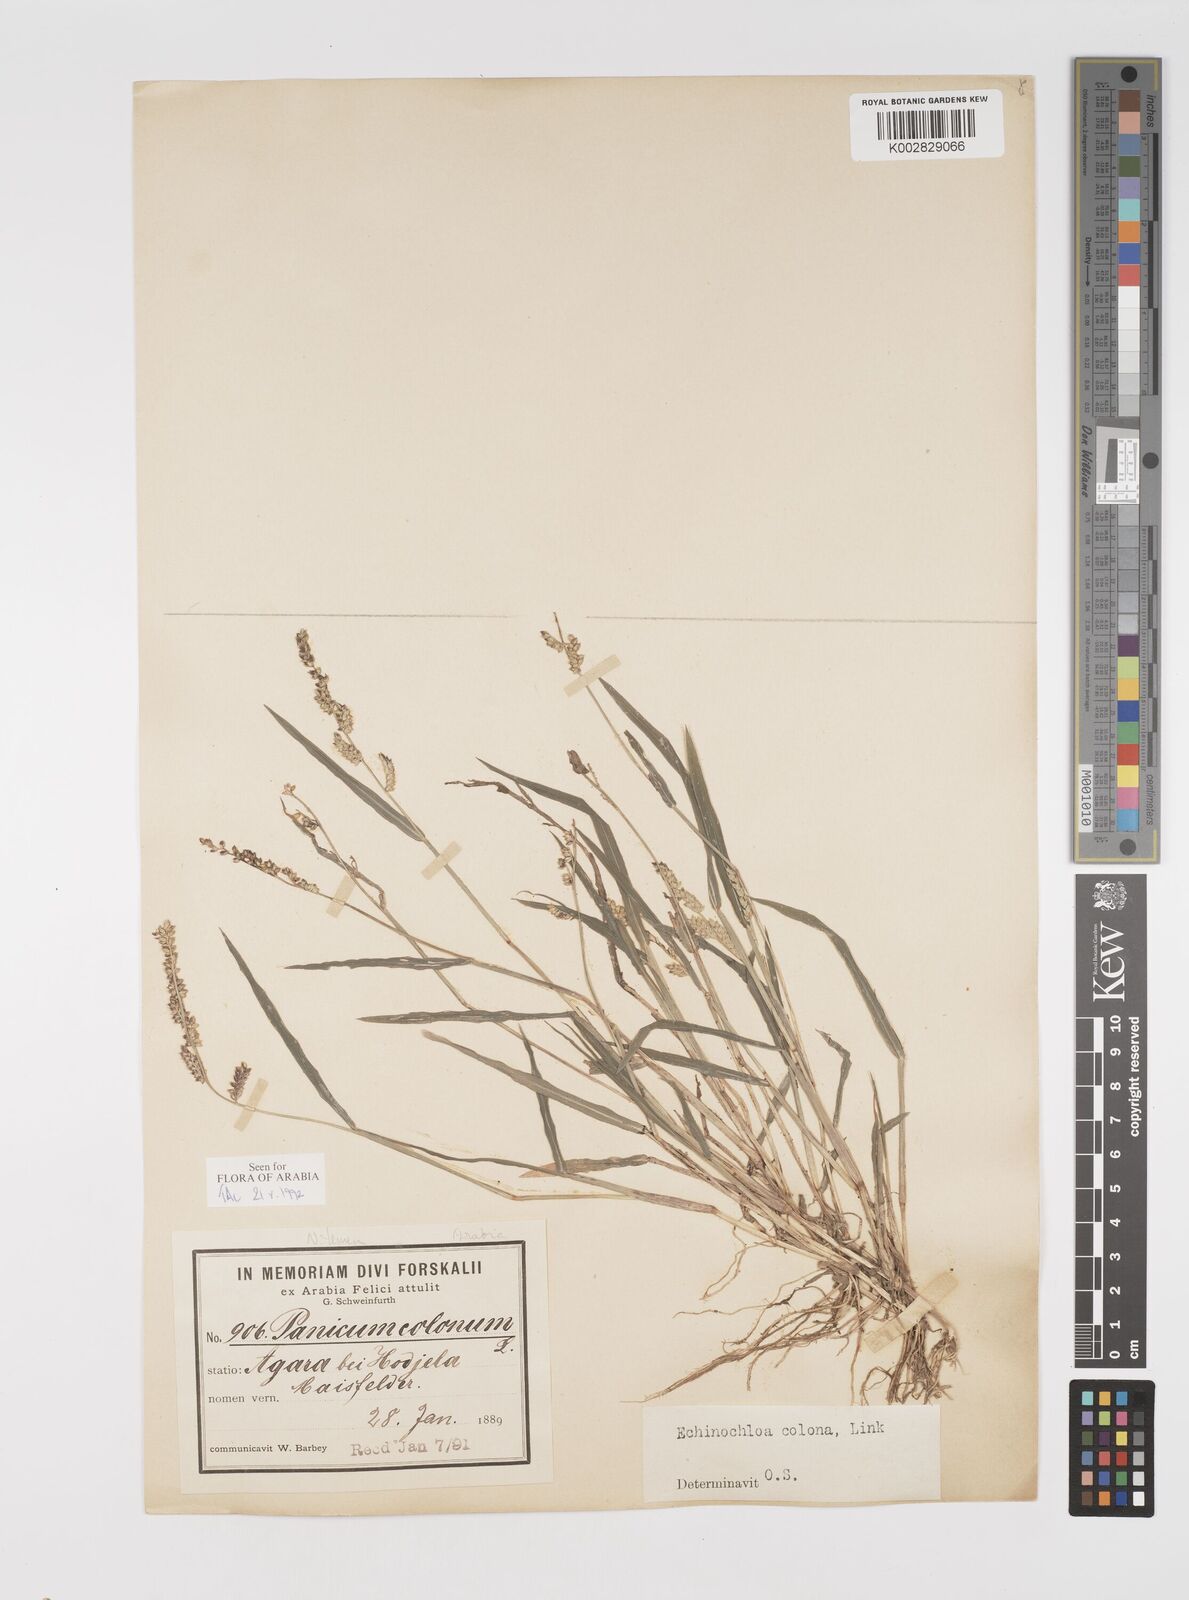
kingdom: Plantae
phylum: Tracheophyta
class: Liliopsida
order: Poales
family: Poaceae
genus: Echinochloa
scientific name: Echinochloa colonum
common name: Jungle rice
